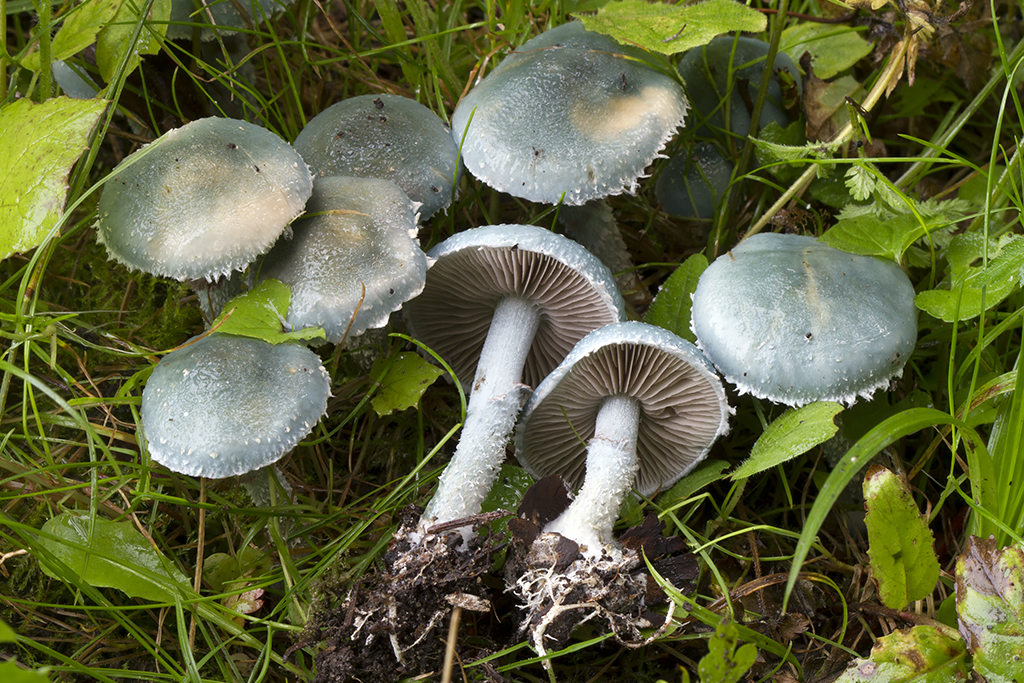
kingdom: Fungi
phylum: Basidiomycota
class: Agaricomycetes
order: Agaricales
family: Strophariaceae
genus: Stropharia
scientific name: Stropharia cyanea
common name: blågrøn bredblad
